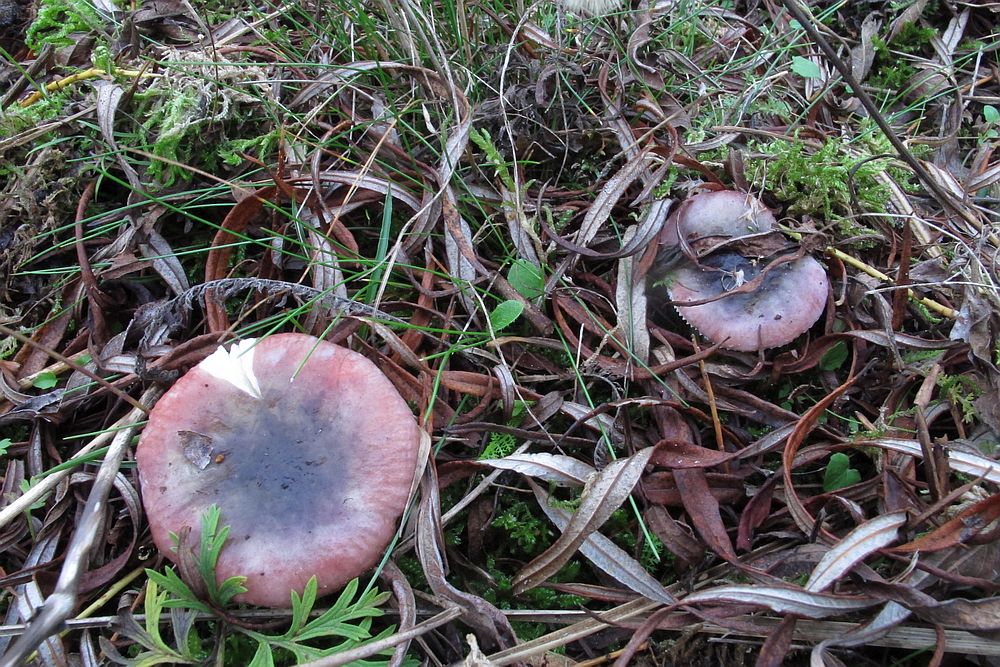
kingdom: Fungi
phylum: Basidiomycota
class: Agaricomycetes
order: Russulales
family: Russulaceae
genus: Russula
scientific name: Russula
